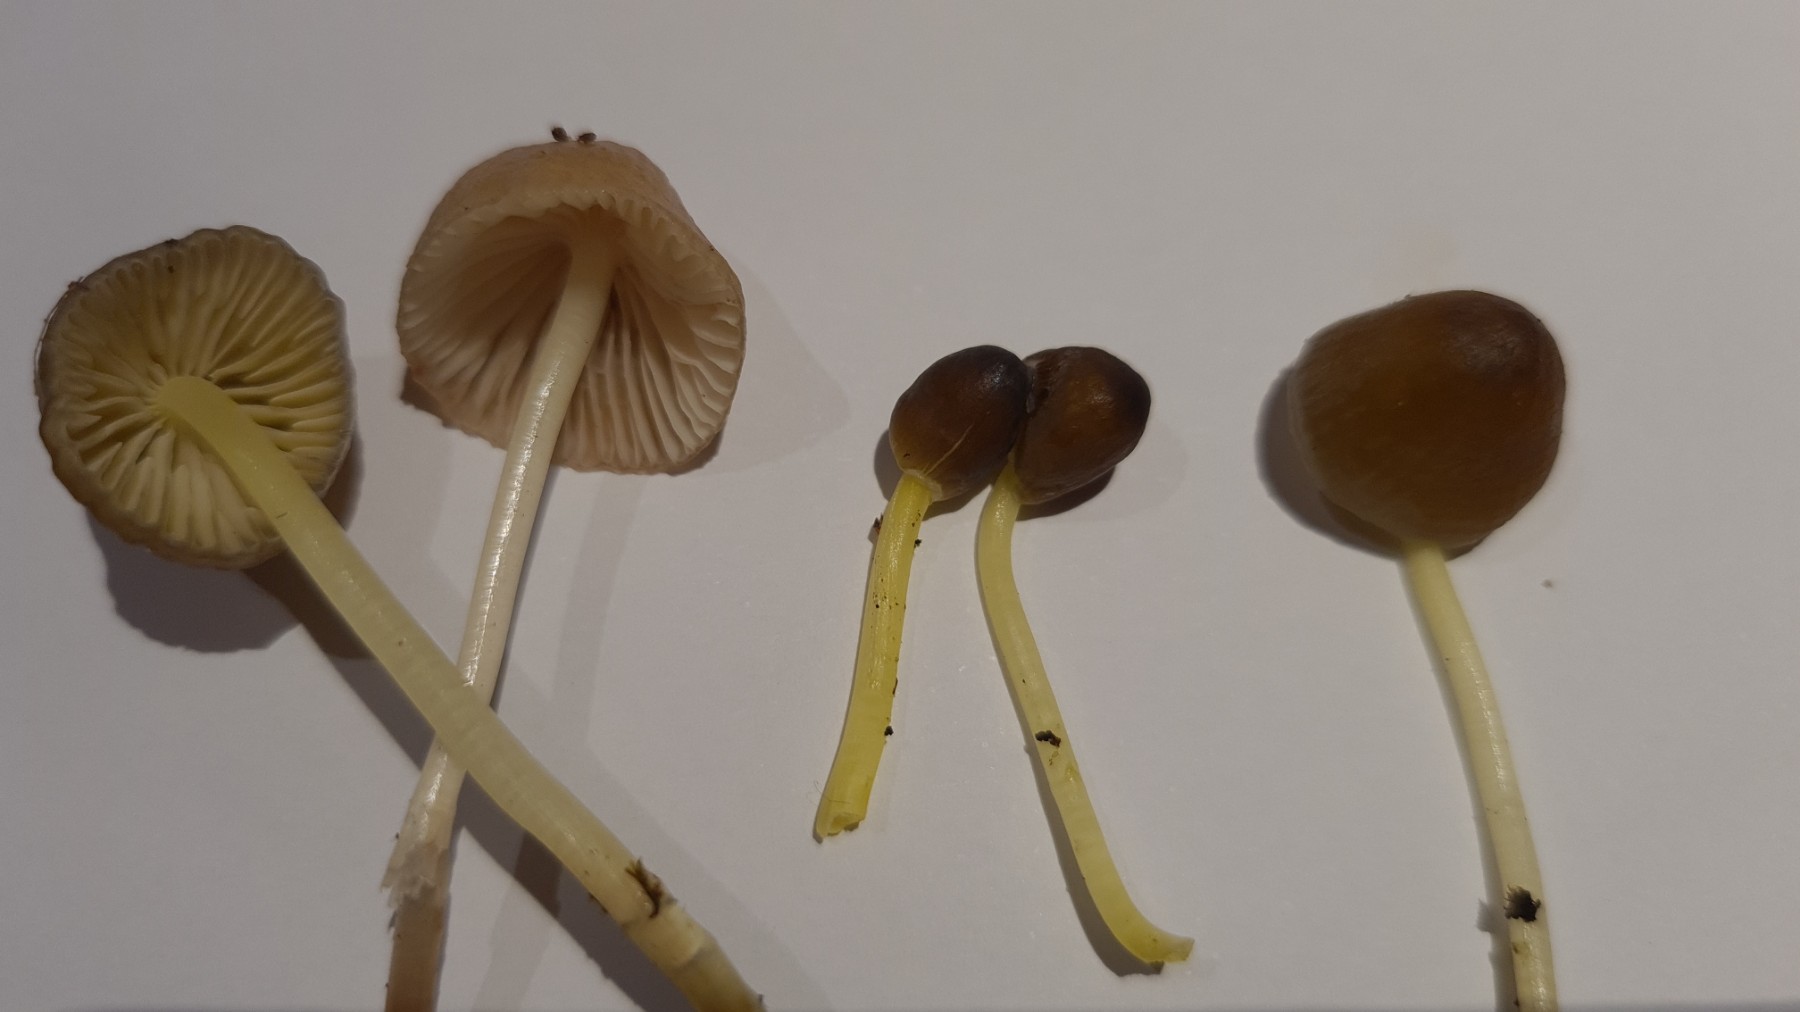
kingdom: Fungi
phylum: Basidiomycota
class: Agaricomycetes
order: Agaricales
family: Mycenaceae
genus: Mycena
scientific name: Mycena epipterygia
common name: gulstokket huesvamp
